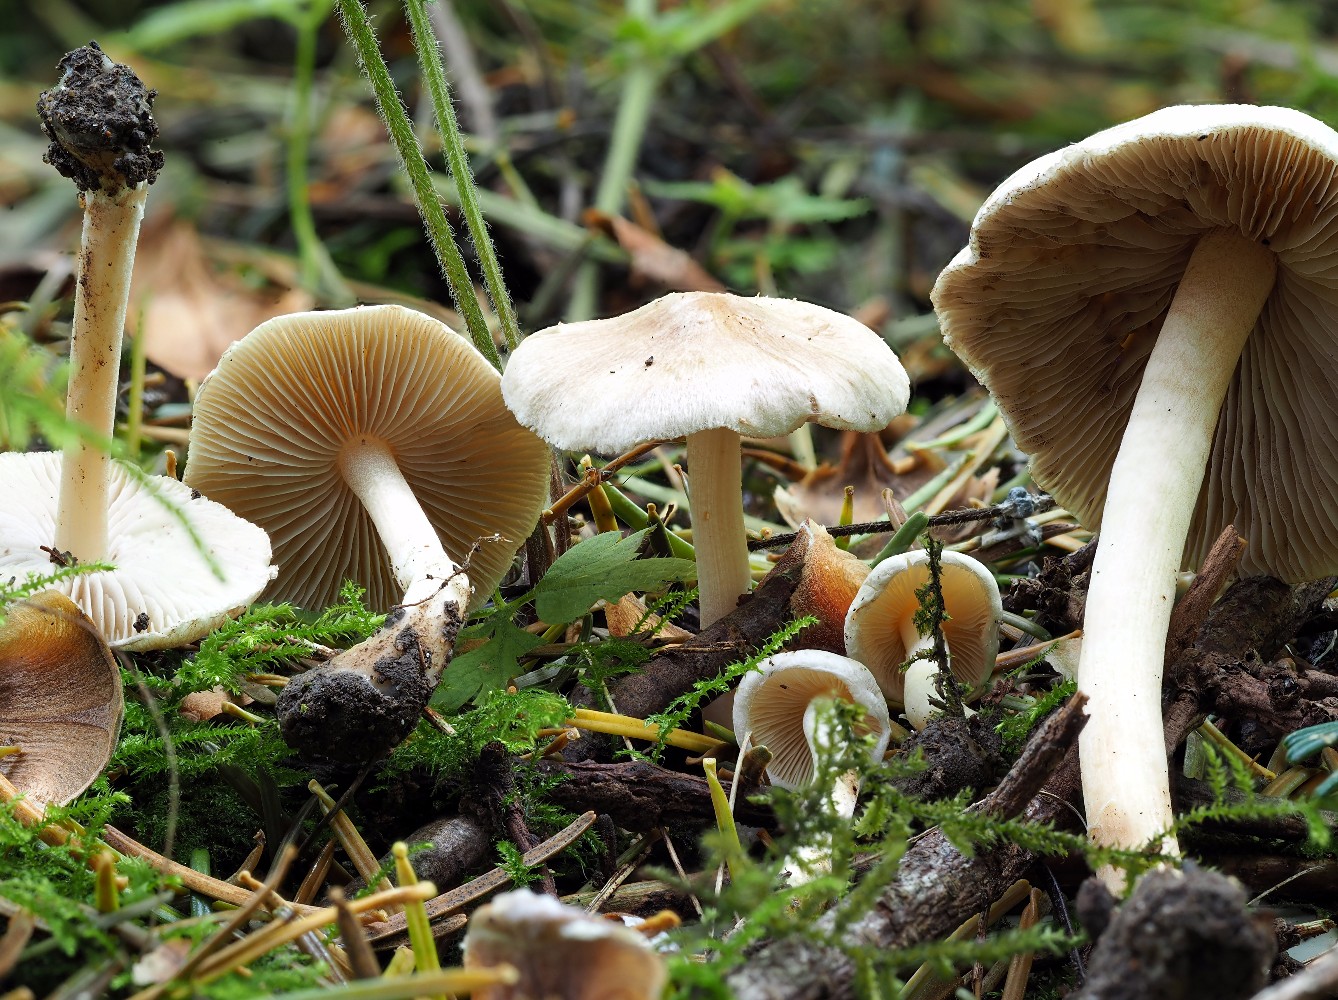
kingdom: Fungi
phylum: Basidiomycota
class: Agaricomycetes
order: Agaricales
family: Inocybaceae
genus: Inocybe
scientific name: Inocybe sindonia
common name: bleg trævlhat
